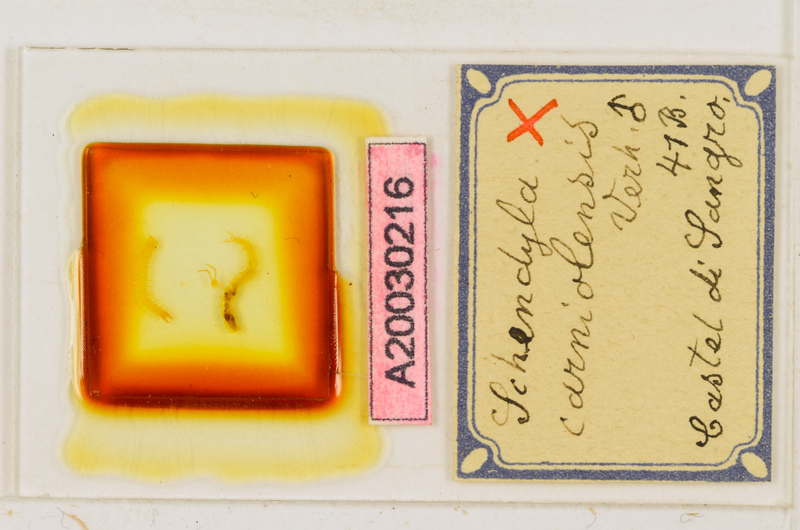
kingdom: Animalia
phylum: Arthropoda
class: Chilopoda
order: Geophilomorpha
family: Schendylidae
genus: Schendyla
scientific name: Schendyla carniolensis
